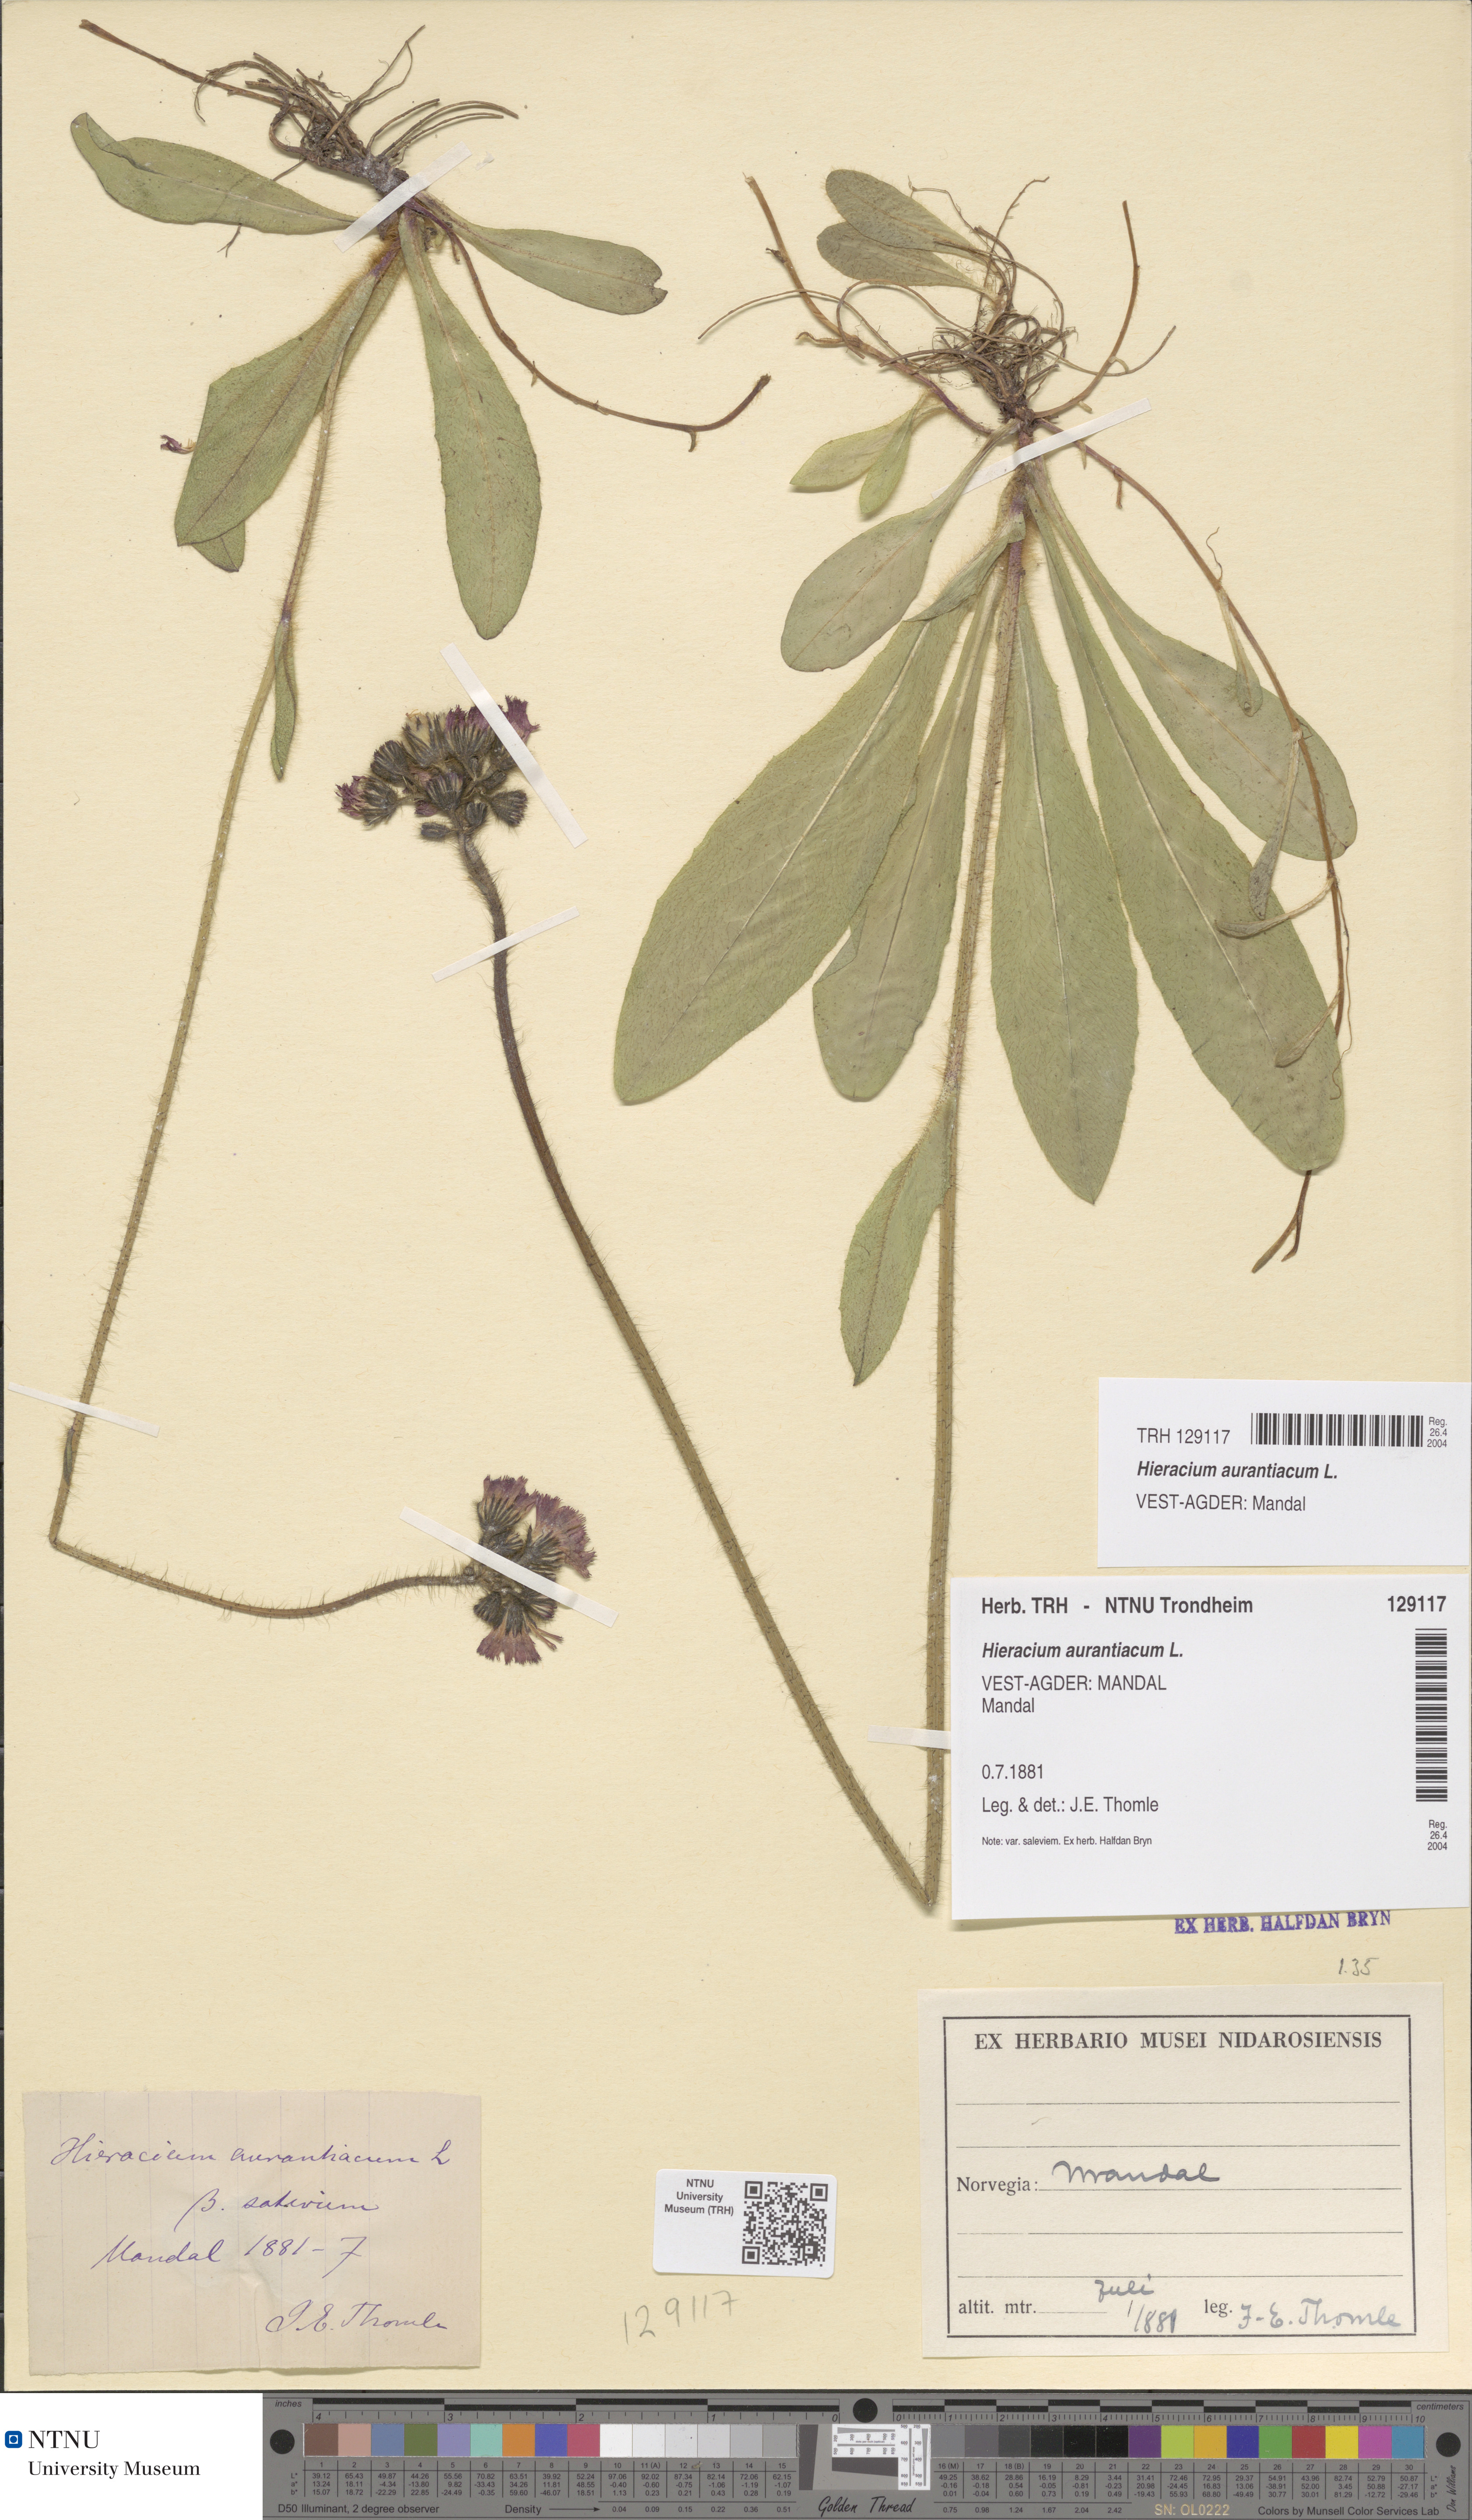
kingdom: Plantae
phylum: Tracheophyta
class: Magnoliopsida
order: Asterales
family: Asteraceae
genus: Pilosella
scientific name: Pilosella aurantiaca
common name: Fox-and-cubs
